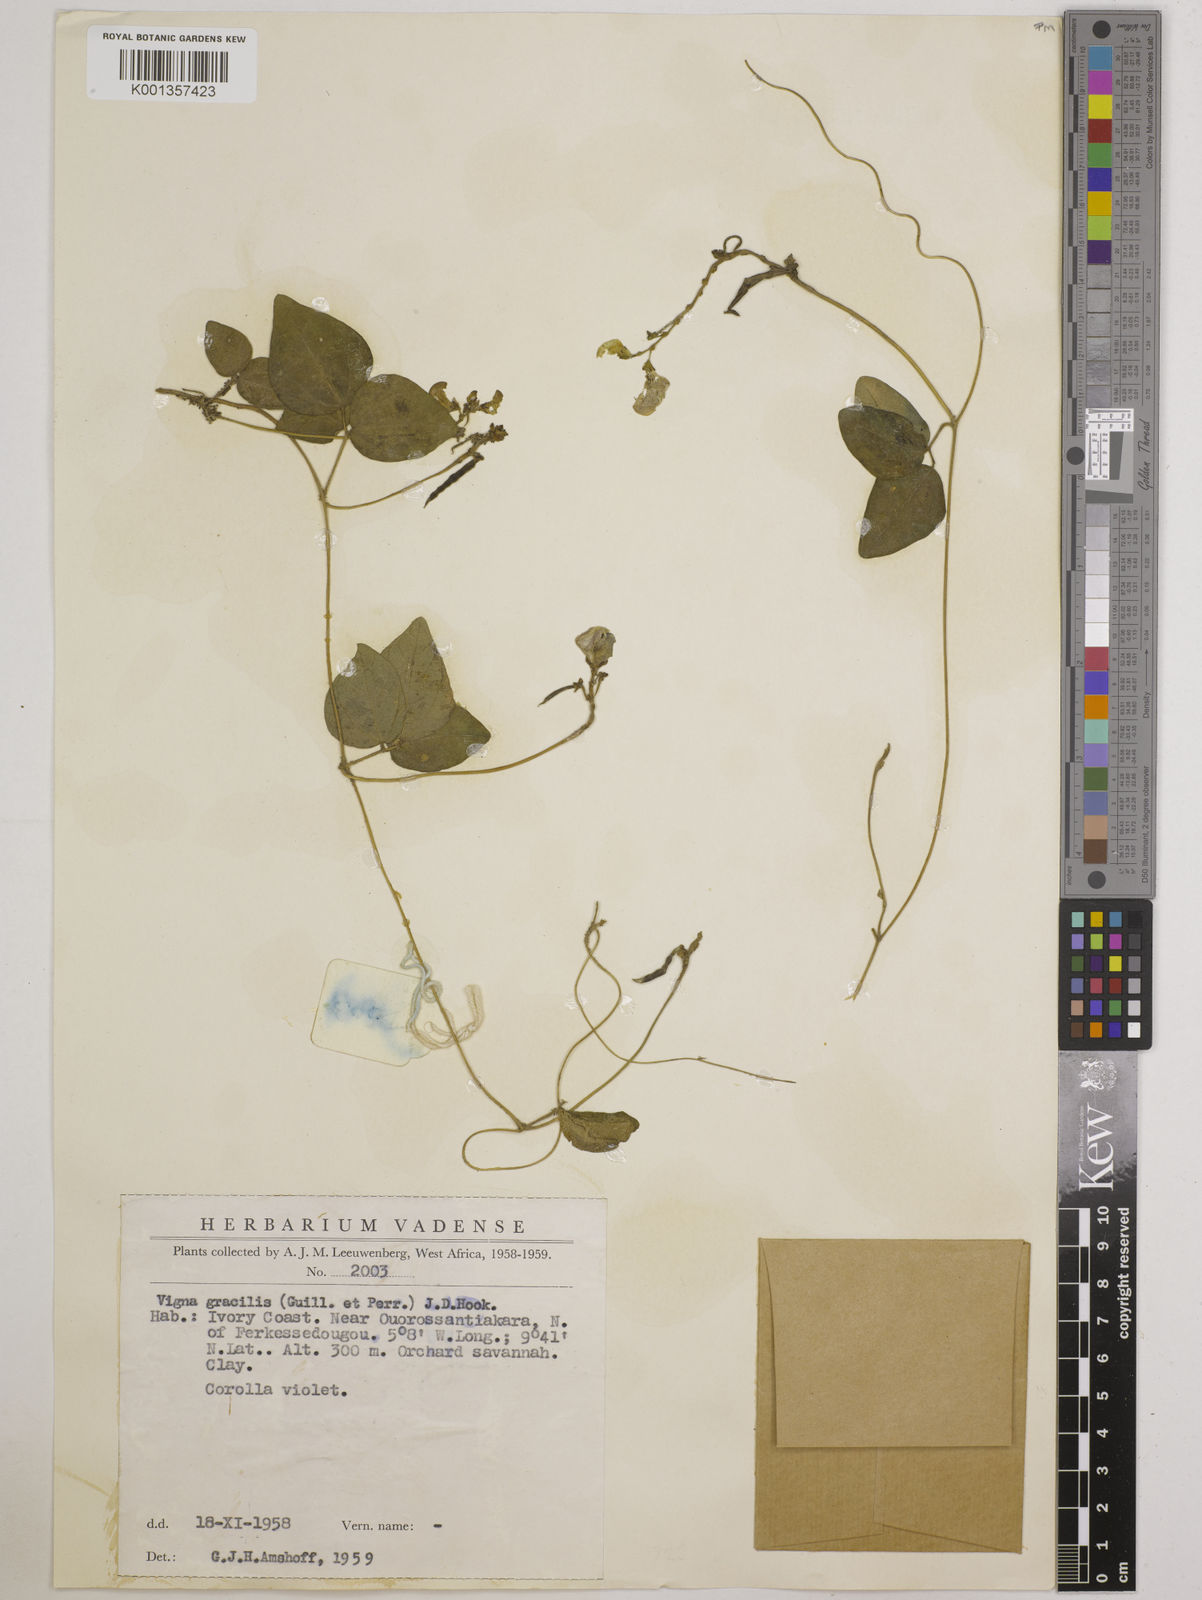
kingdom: Plantae
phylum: Tracheophyta
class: Magnoliopsida
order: Fabales
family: Fabaceae
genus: Vigna
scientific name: Vigna gracilis
